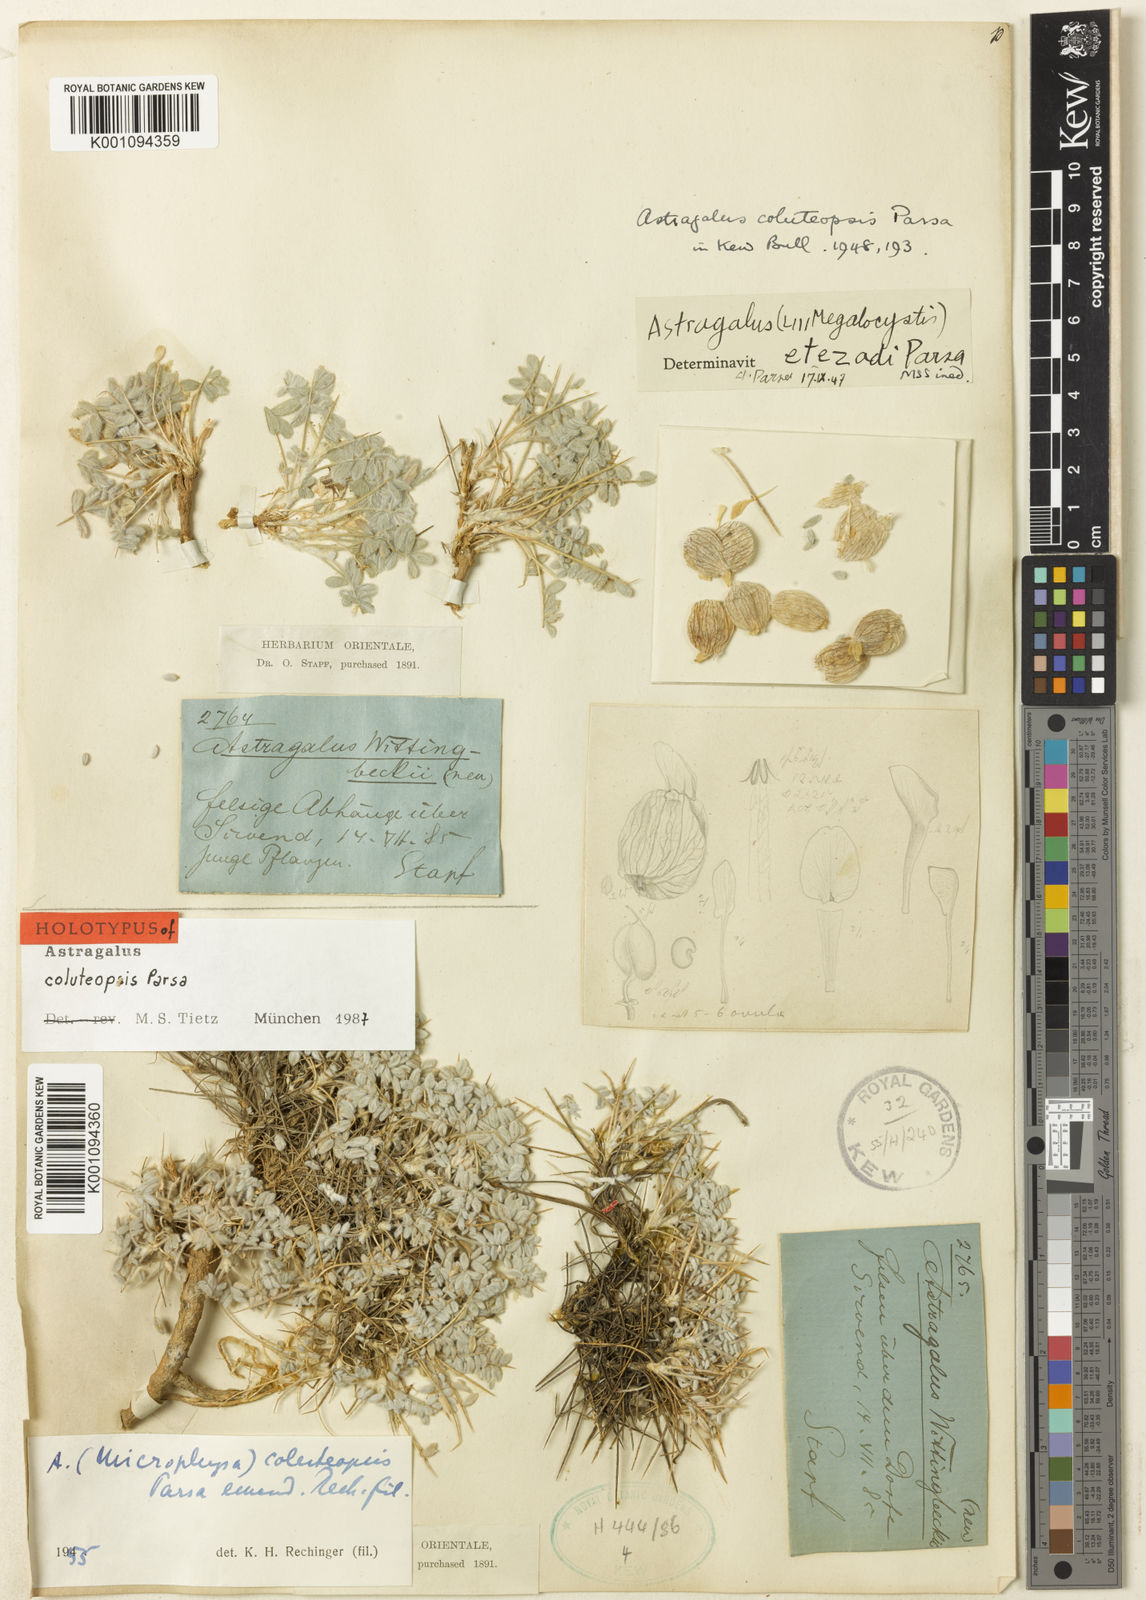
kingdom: Plantae
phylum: Tracheophyta
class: Magnoliopsida
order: Fabales
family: Fabaceae
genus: Astragalus
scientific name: Astragalus
